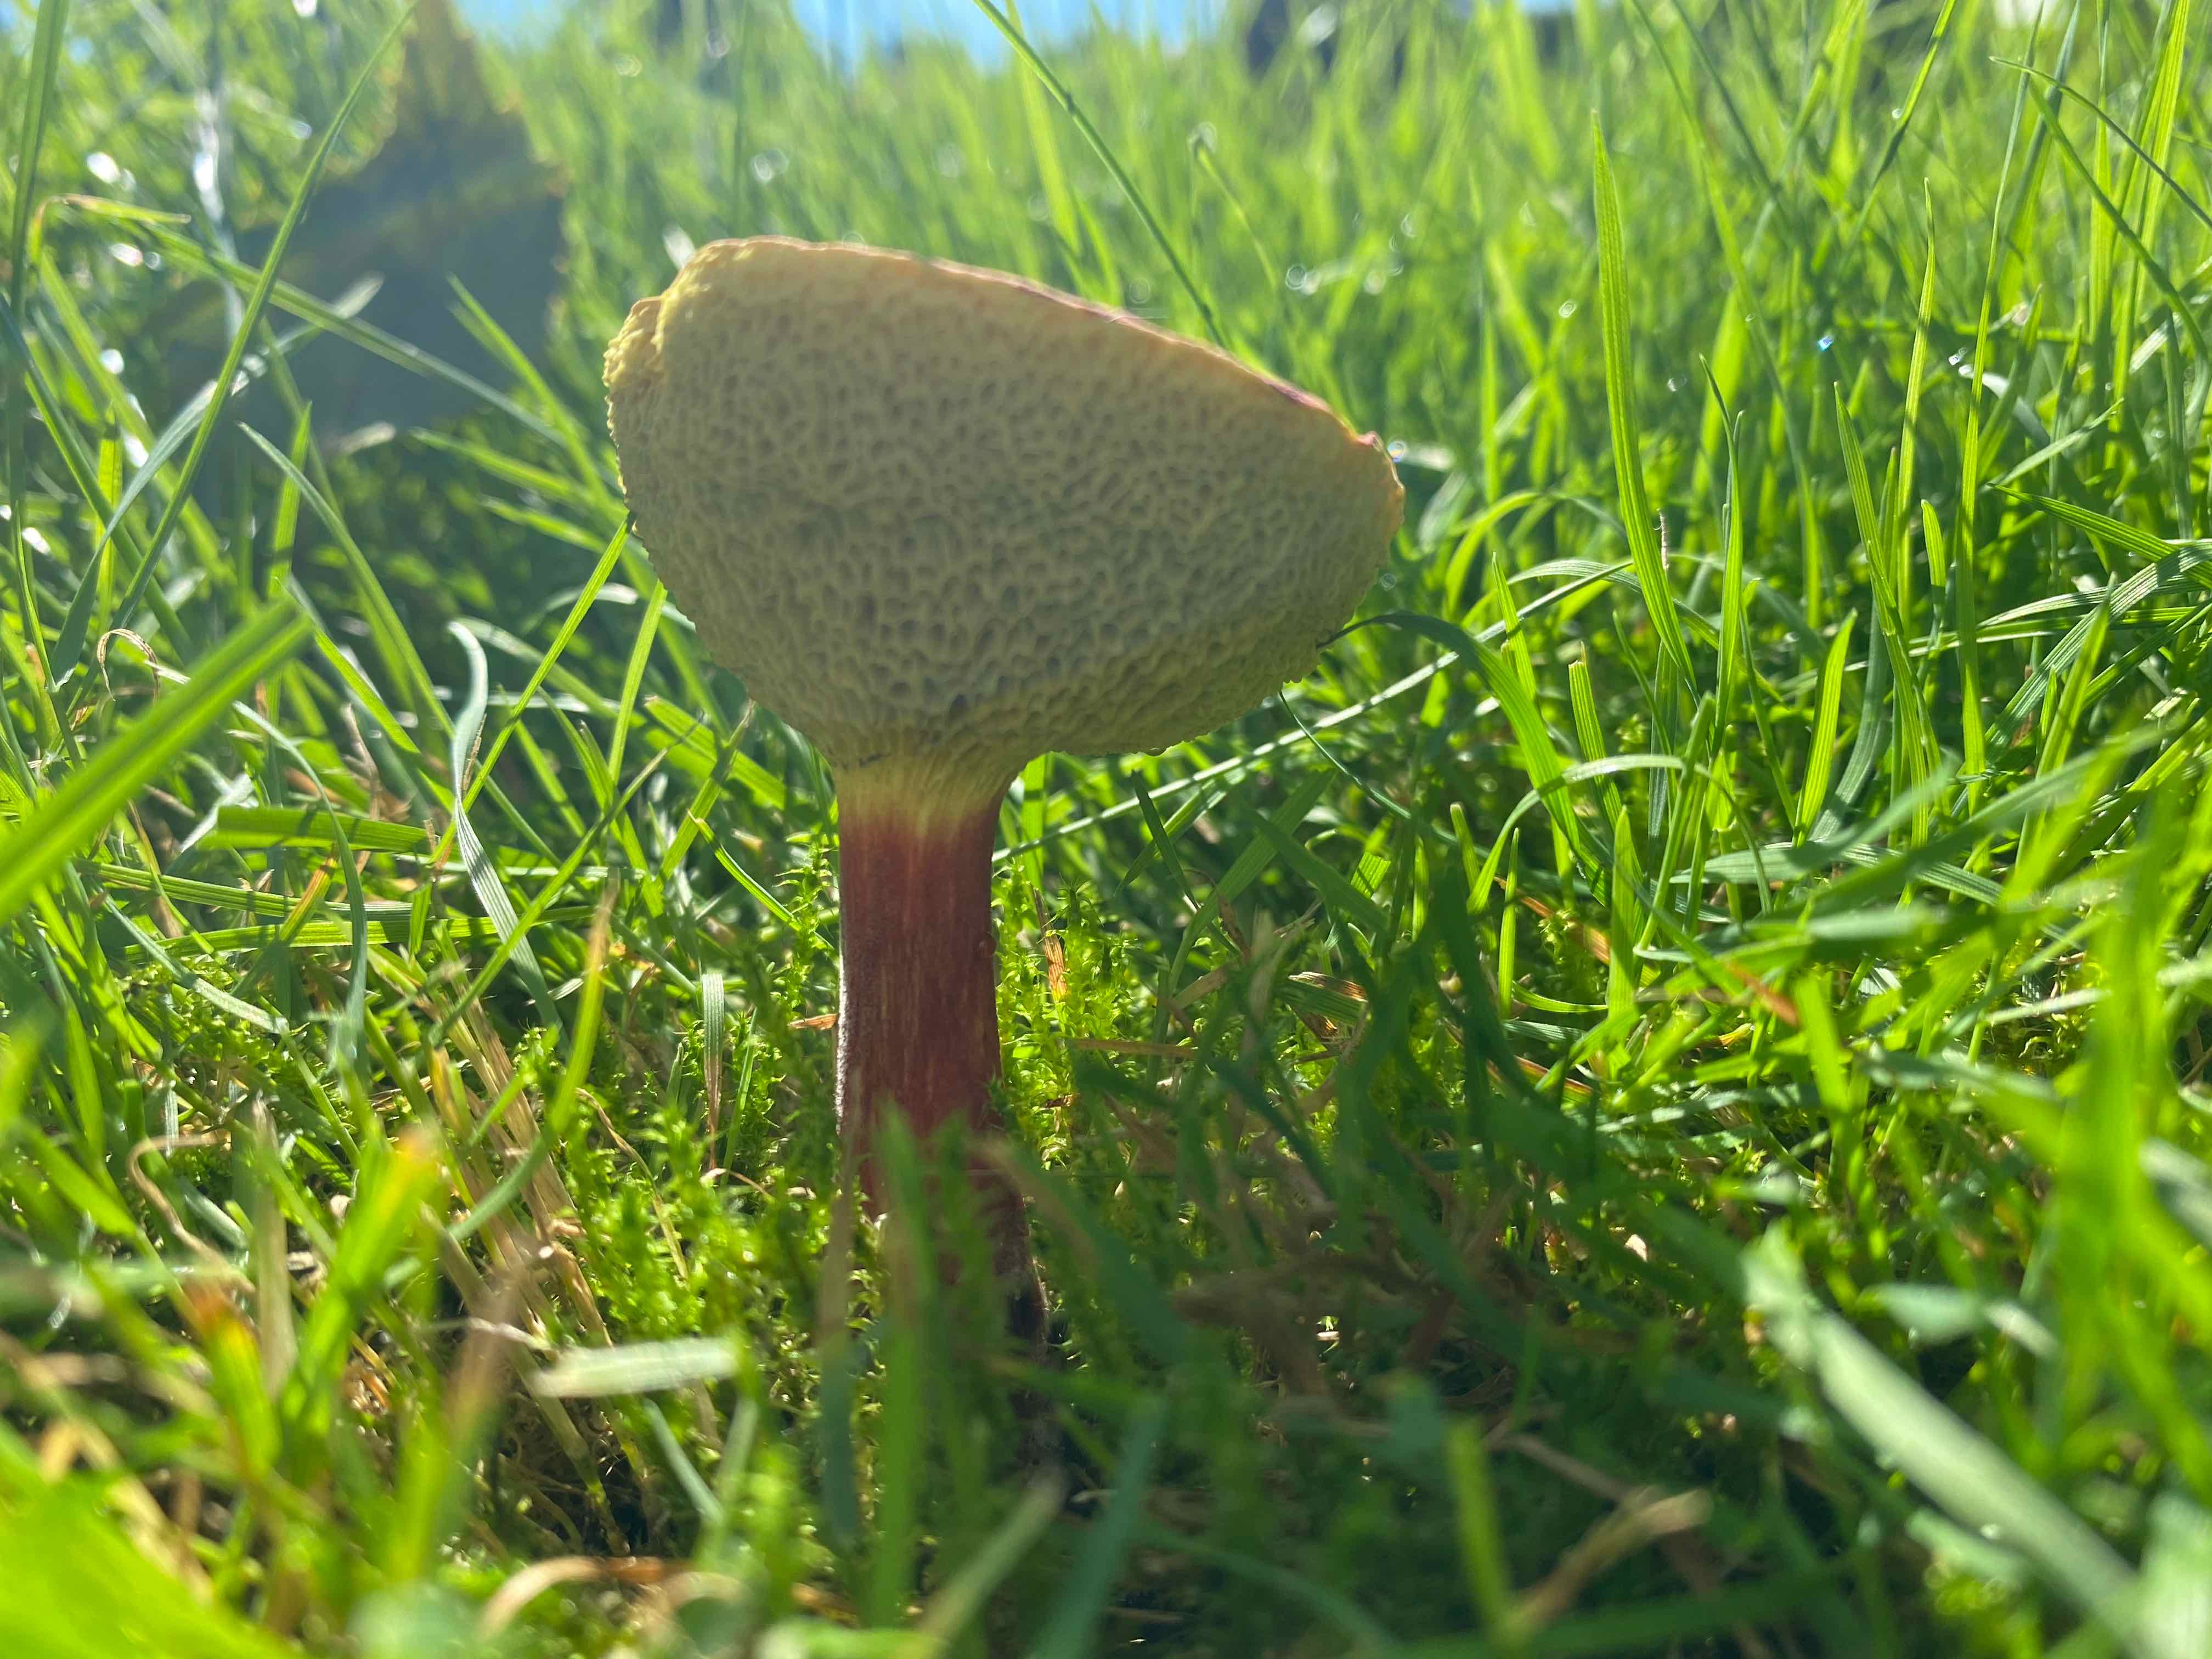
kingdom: Fungi
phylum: Basidiomycota
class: Agaricomycetes
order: Boletales
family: Boletaceae
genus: Hortiboletus
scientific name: Hortiboletus bubalinus
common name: aurora-rørhat
